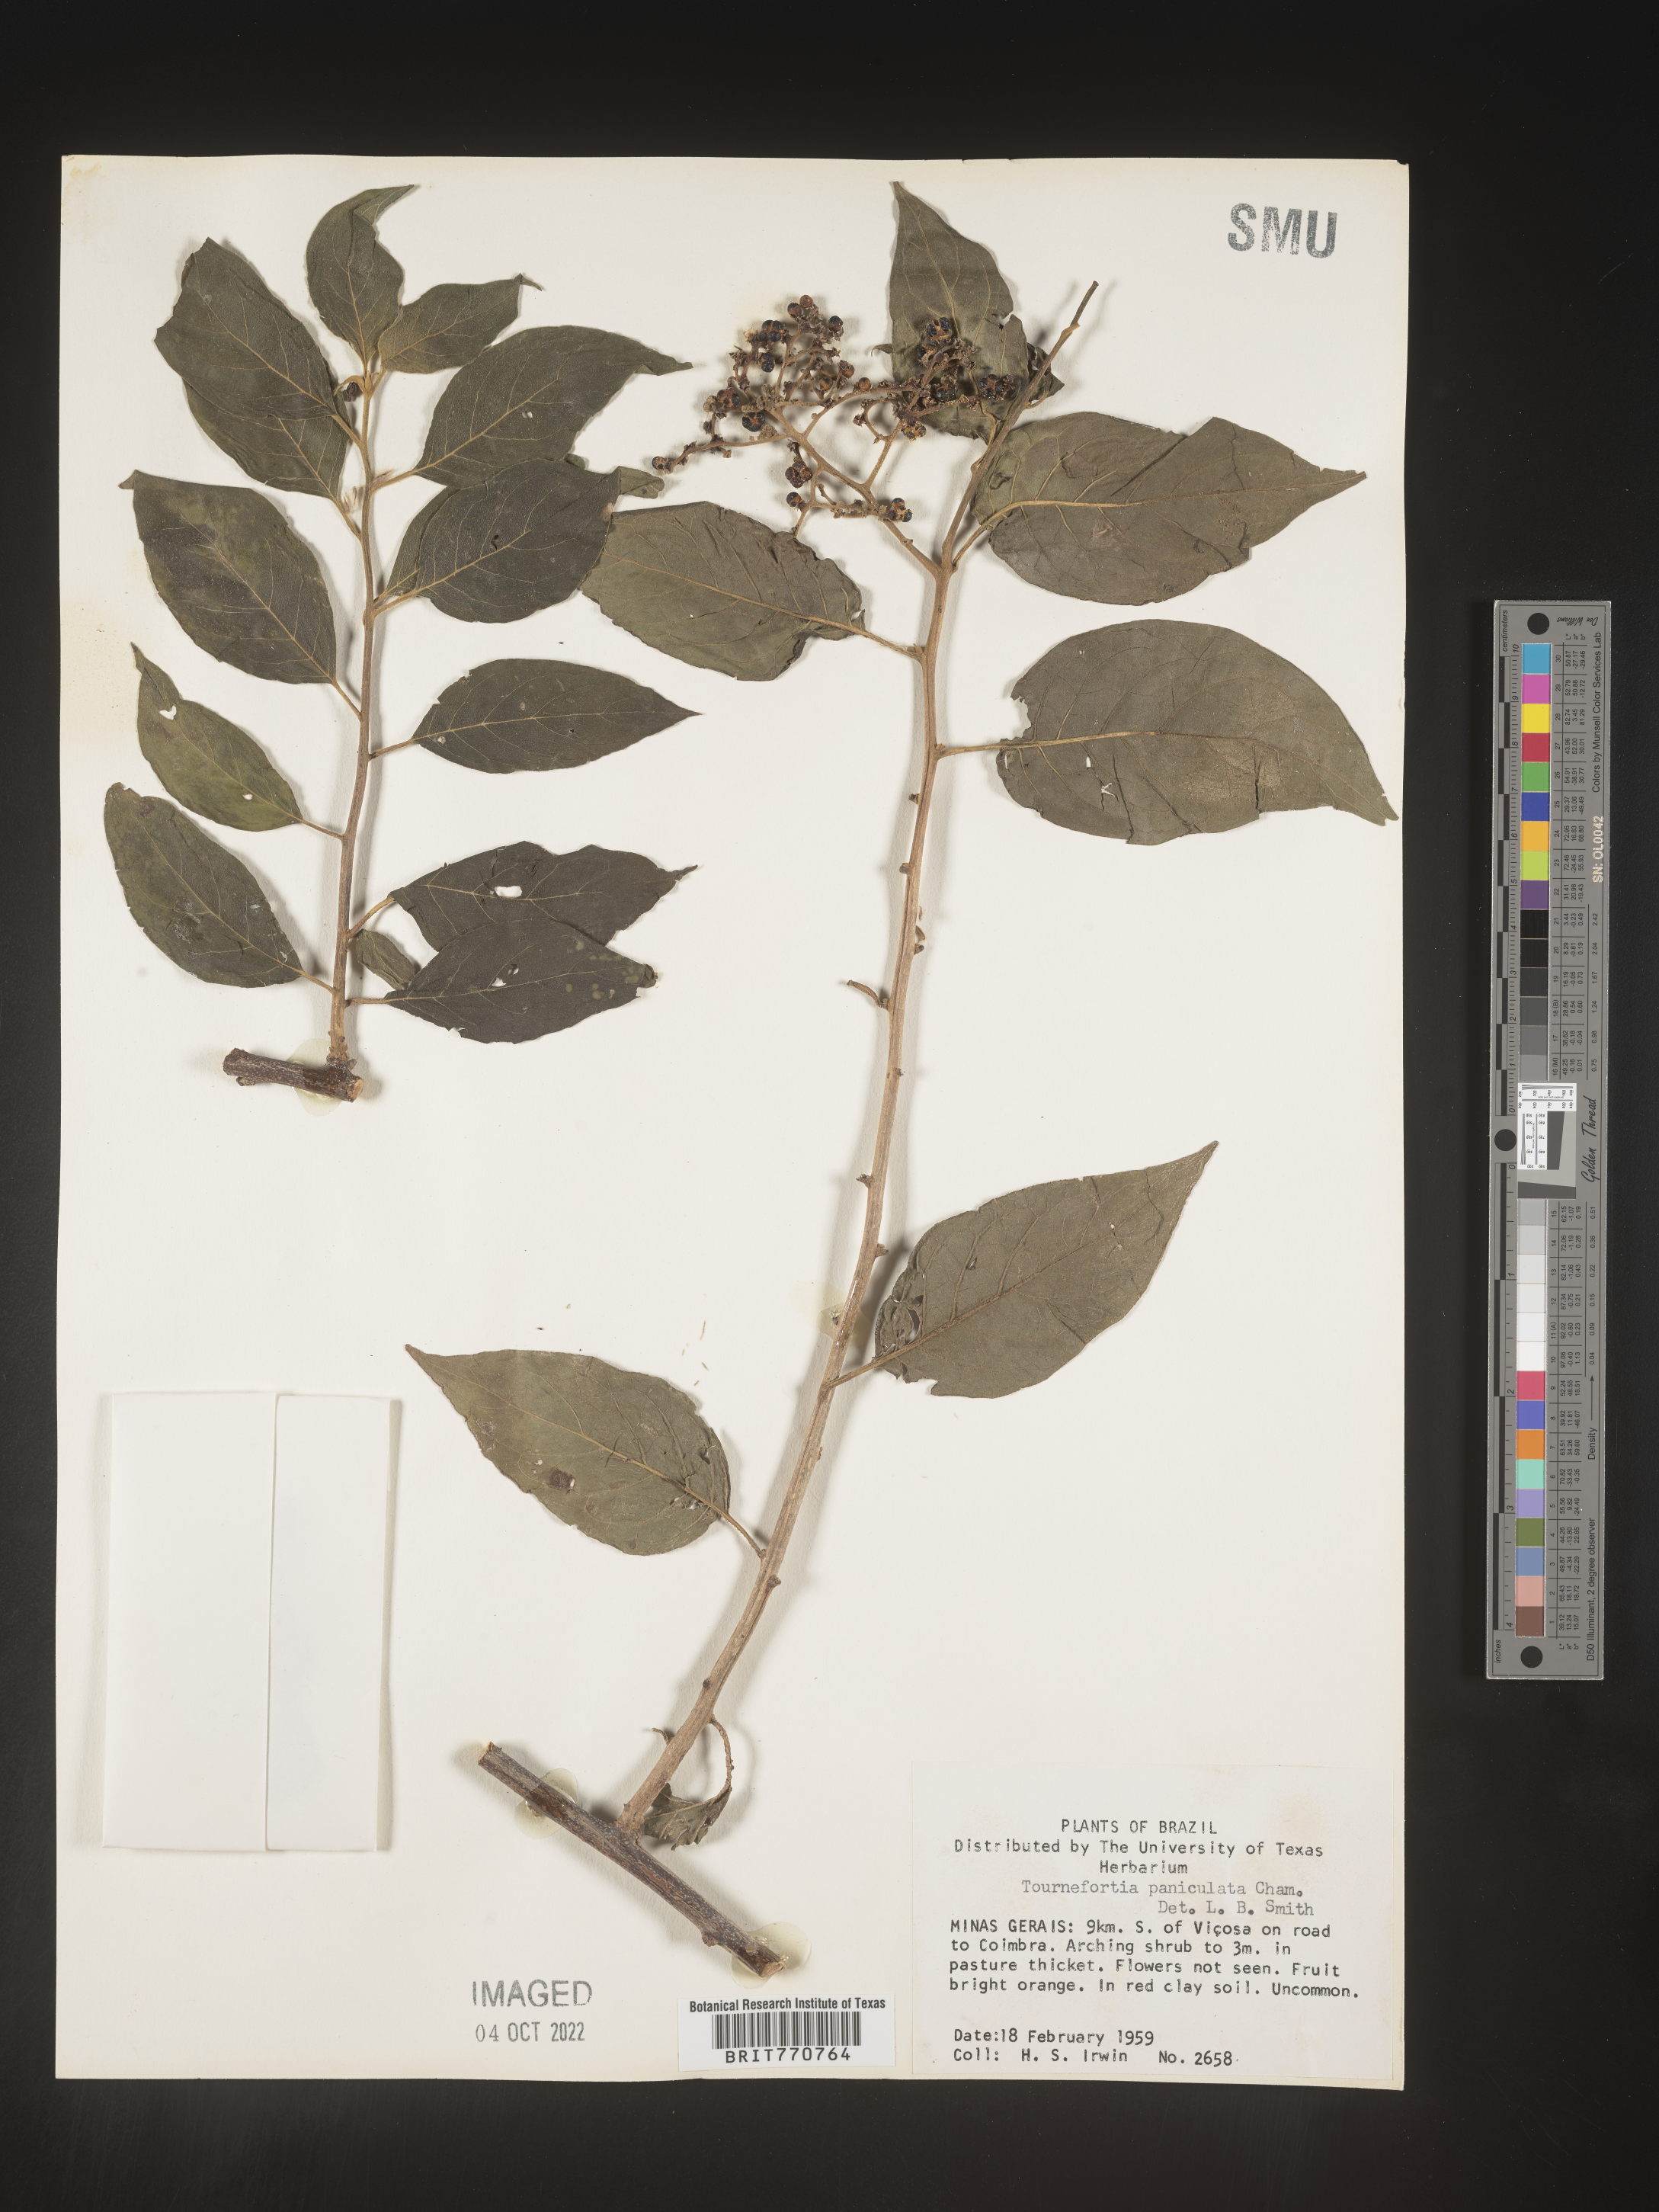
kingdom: Plantae
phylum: Tracheophyta
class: Magnoliopsida
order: Boraginales
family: Heliotropiaceae
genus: Tournefortia
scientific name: Tournefortia
